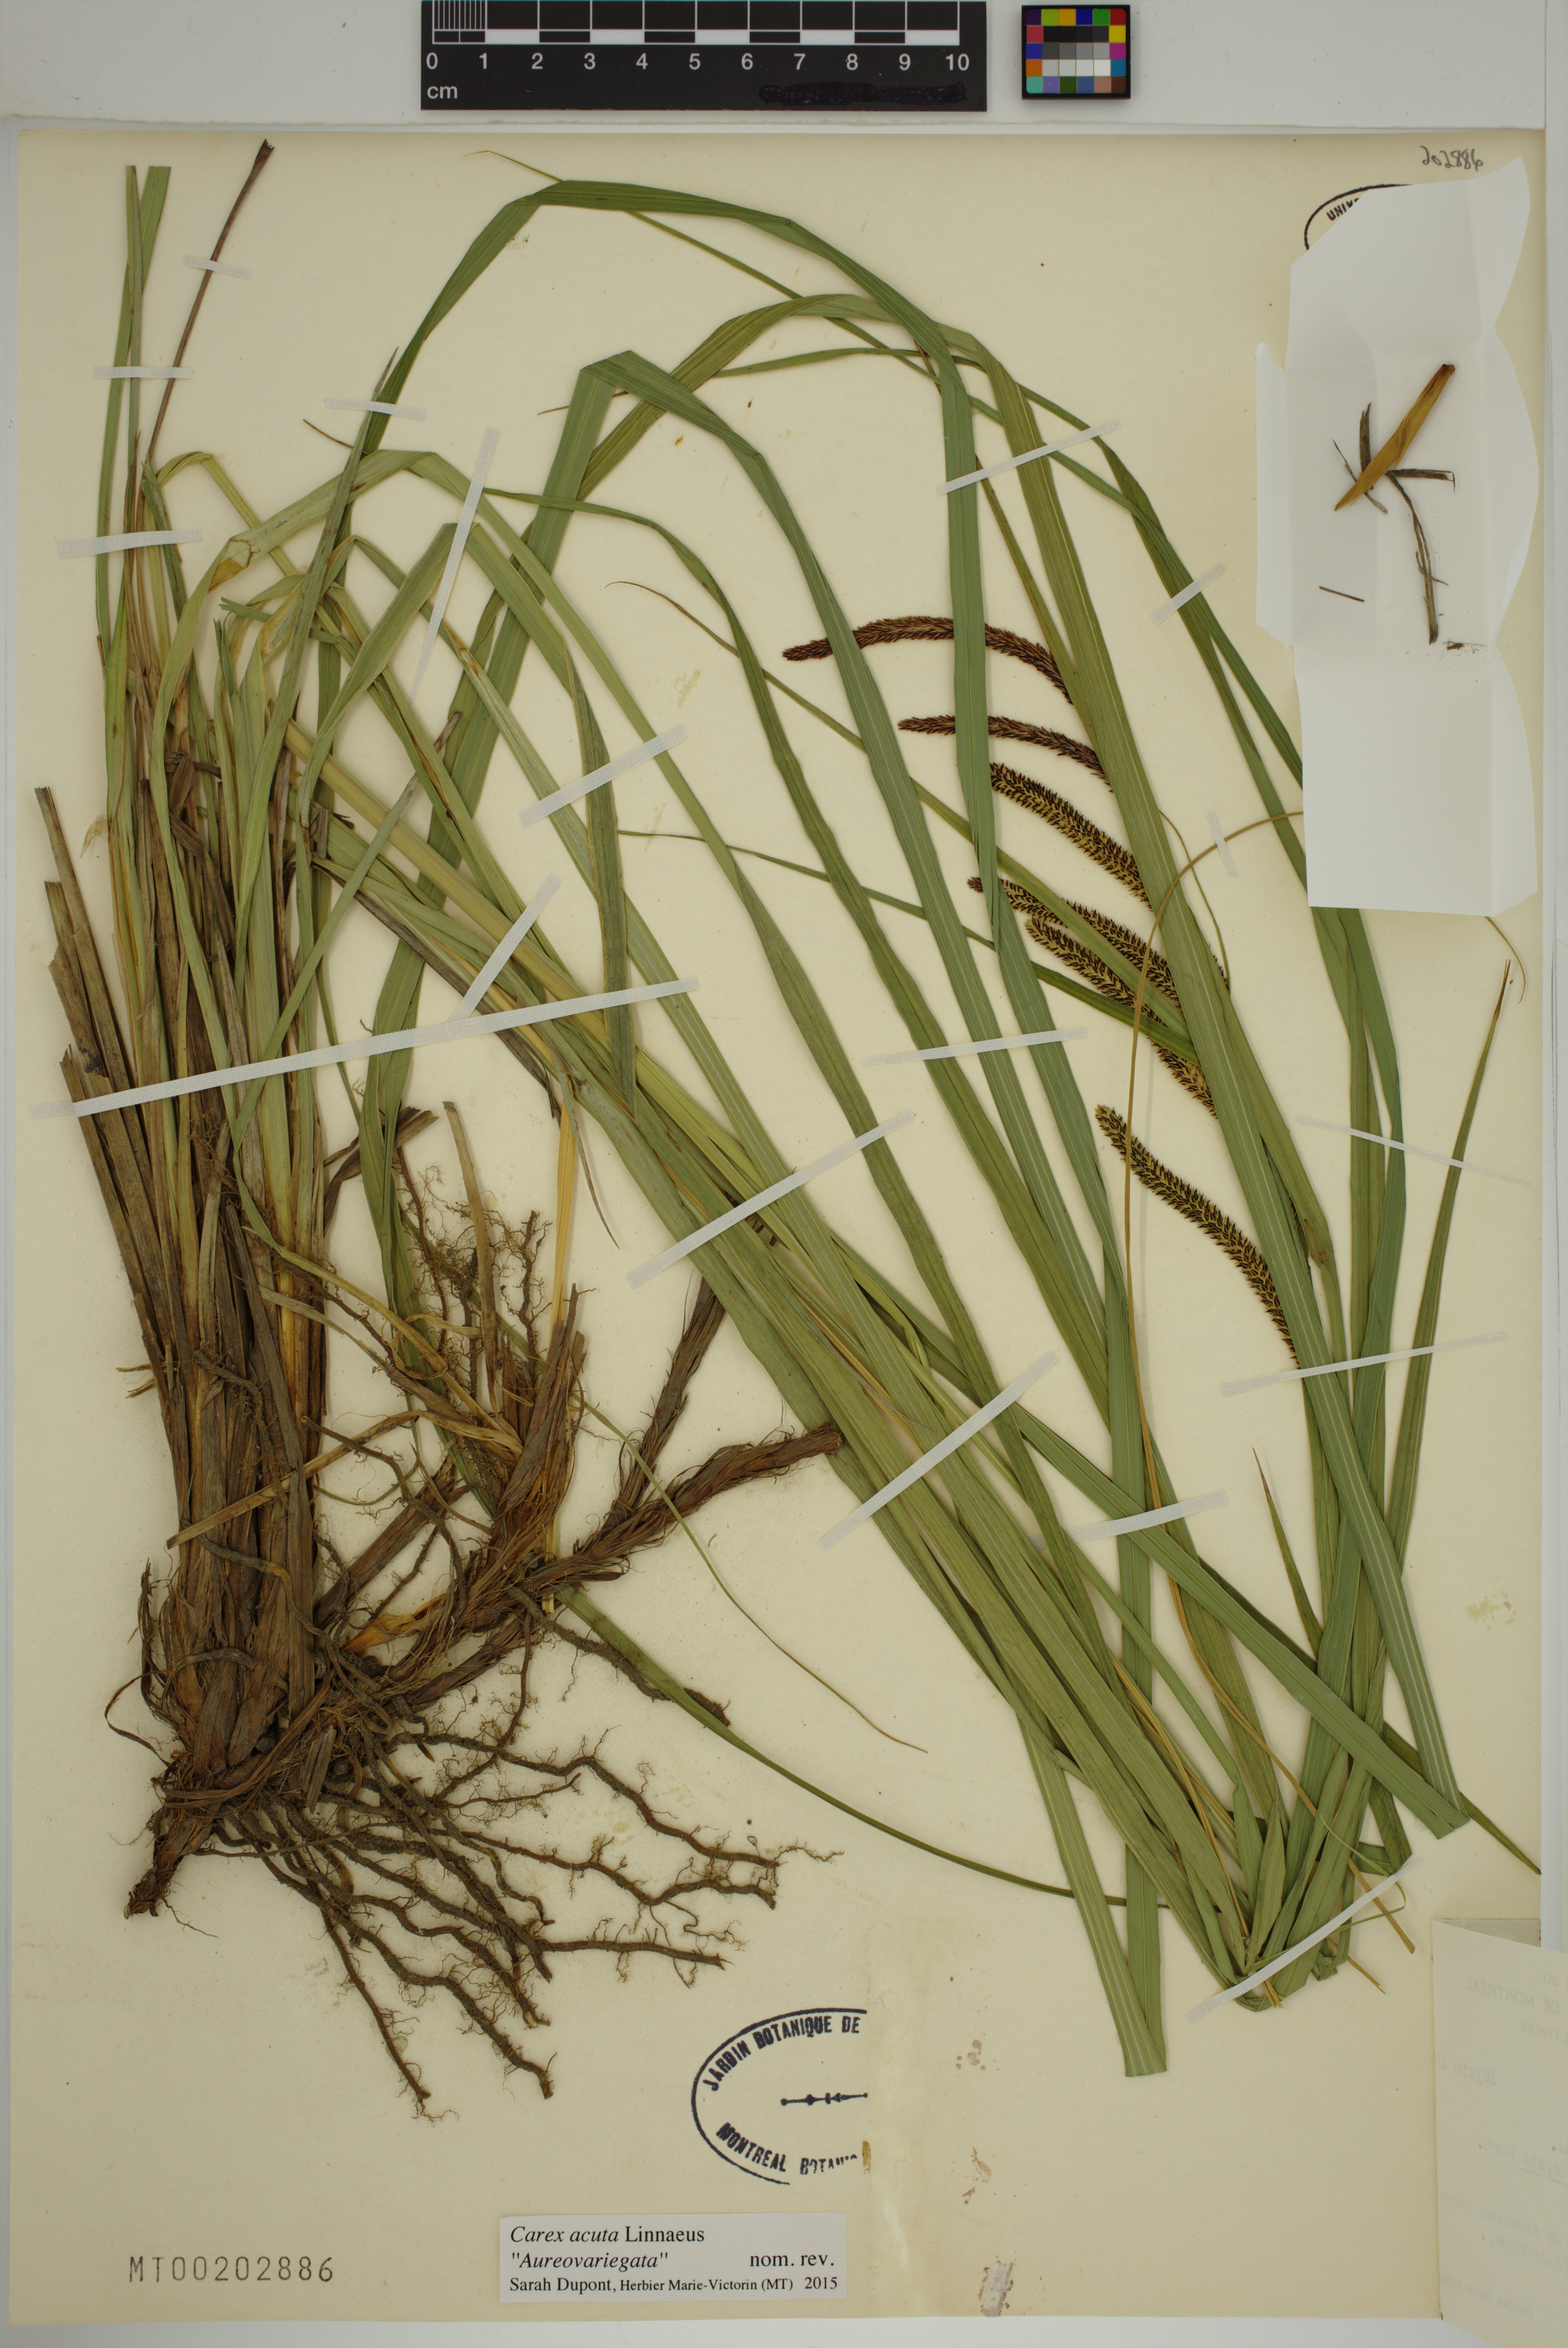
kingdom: Plantae
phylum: Tracheophyta
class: Liliopsida
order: Poales
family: Cyperaceae
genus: Carex
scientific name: Carex acuta
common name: Slender tufted-sedge
